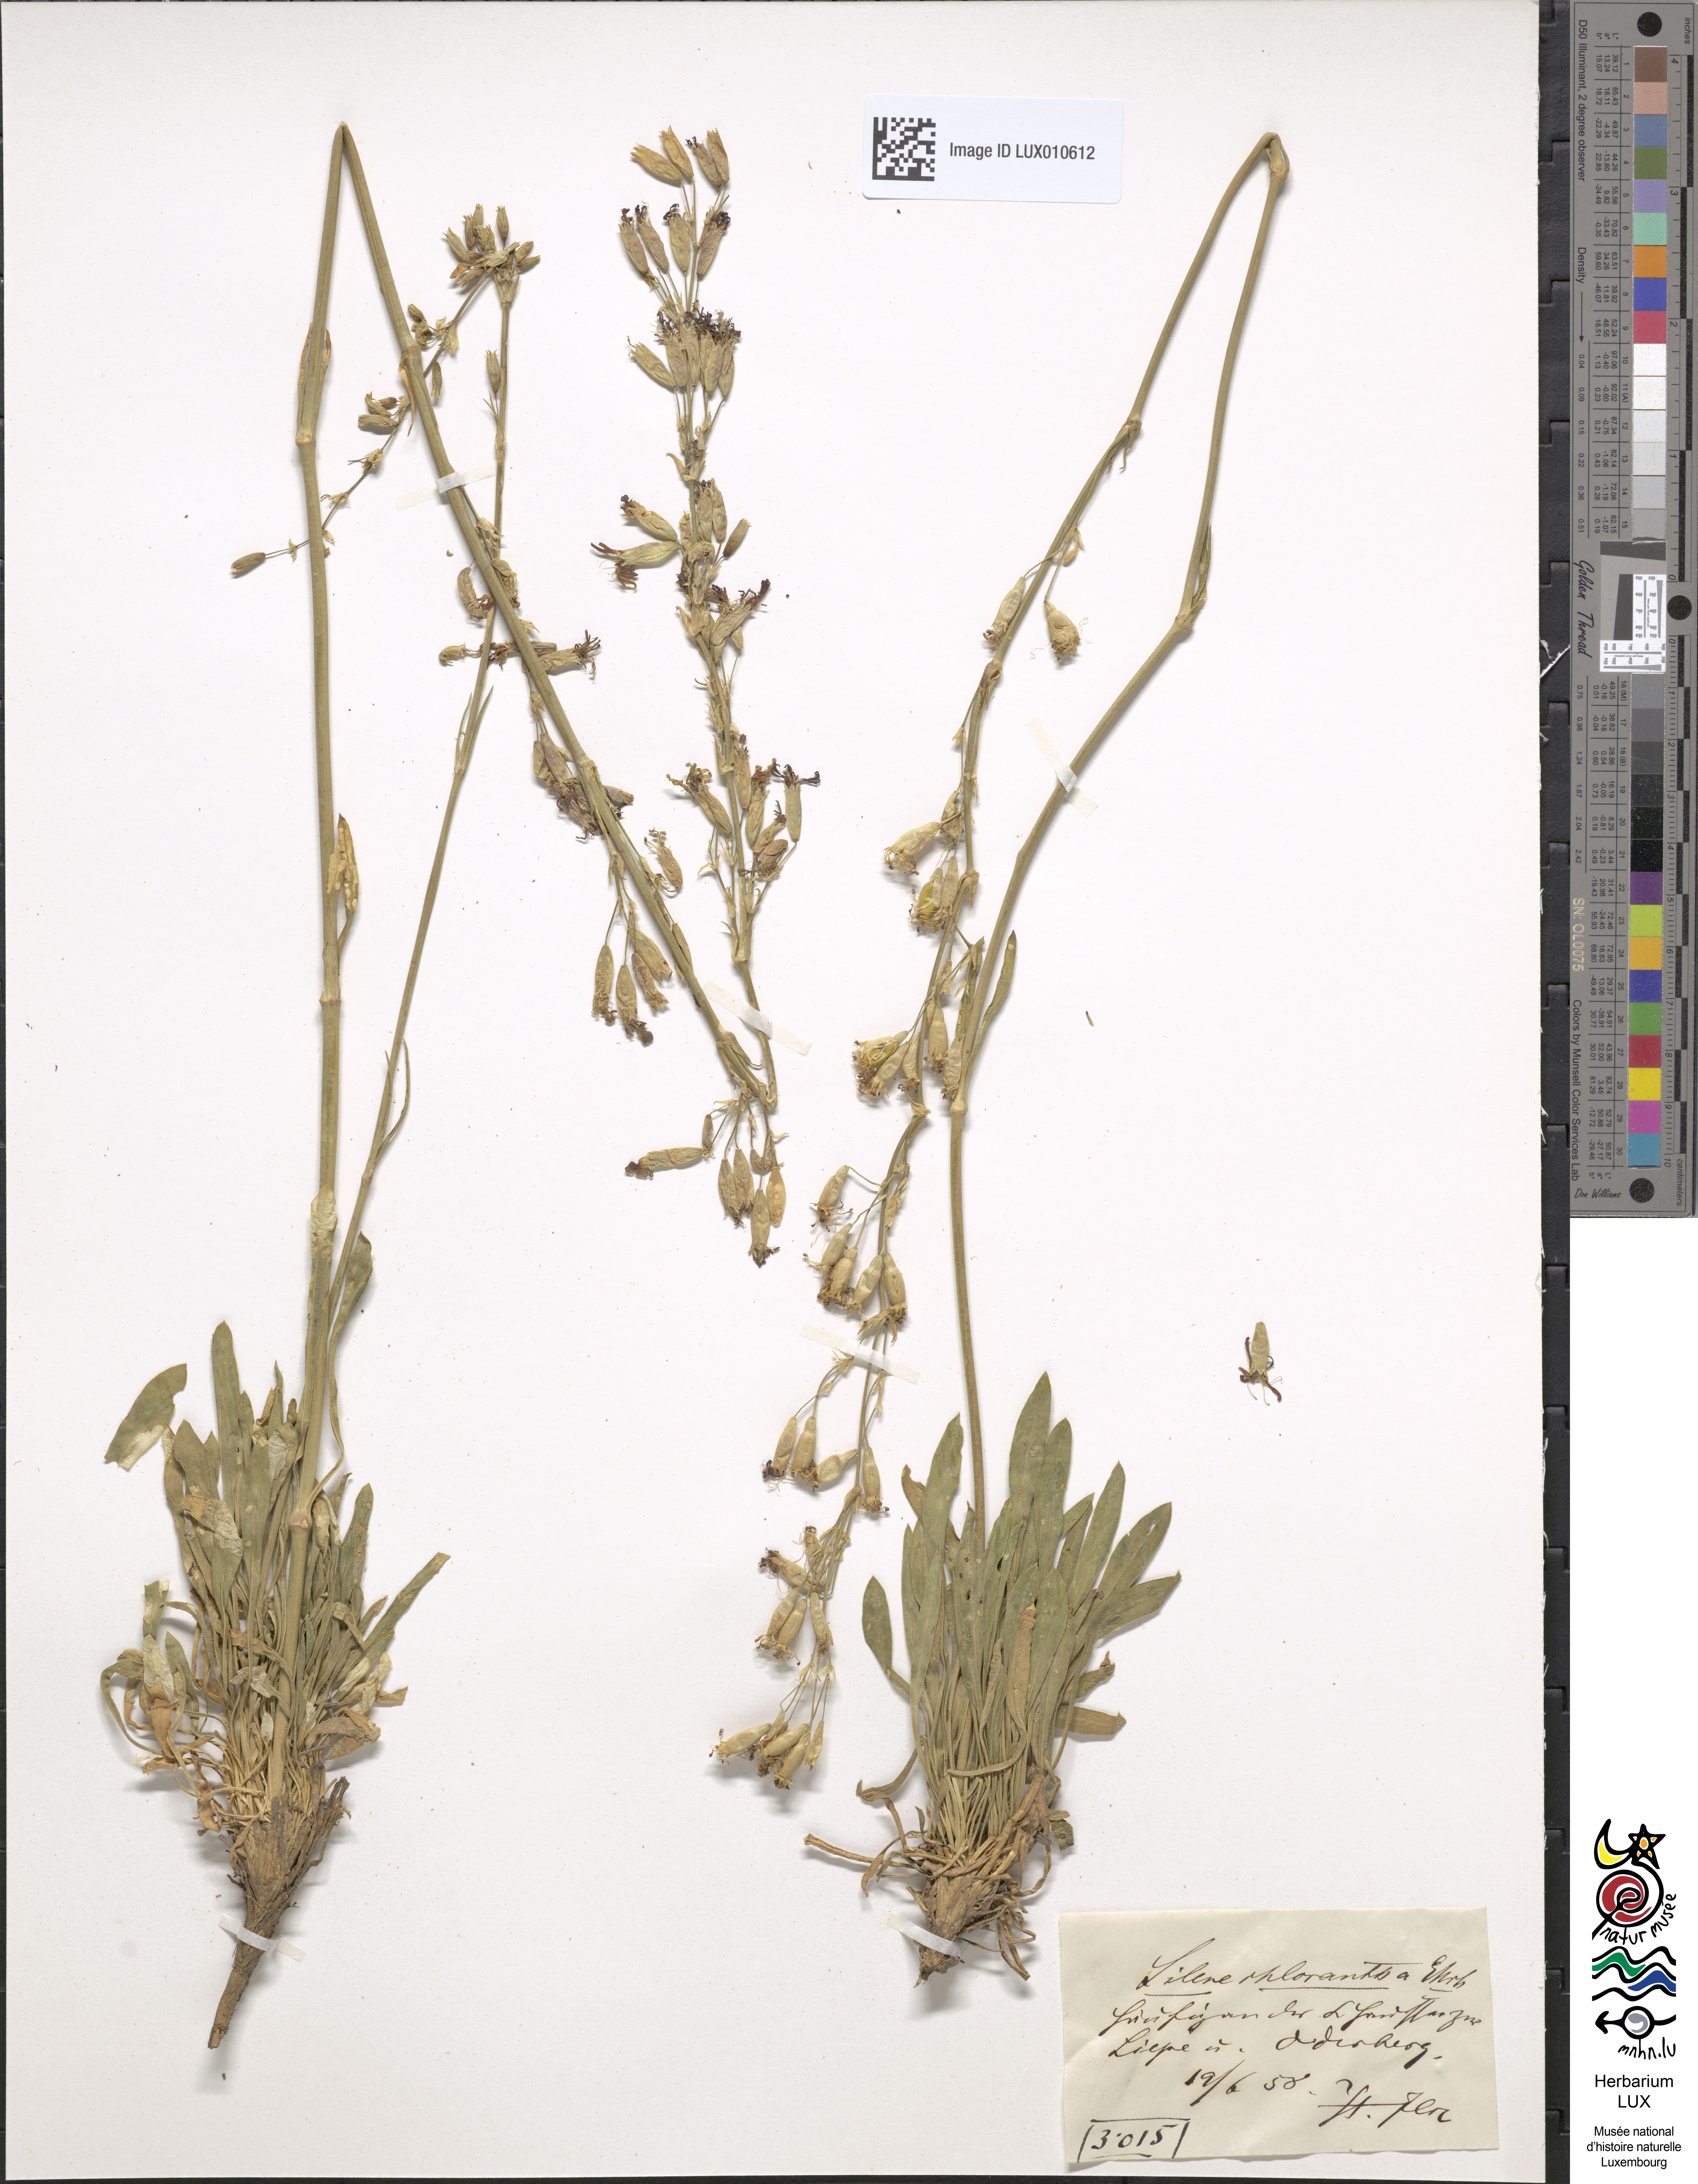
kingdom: Plantae
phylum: Tracheophyta
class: Magnoliopsida
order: Caryophyllales
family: Caryophyllaceae
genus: Silene
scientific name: Silene chlorantha
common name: Yellowgreen catchfly
